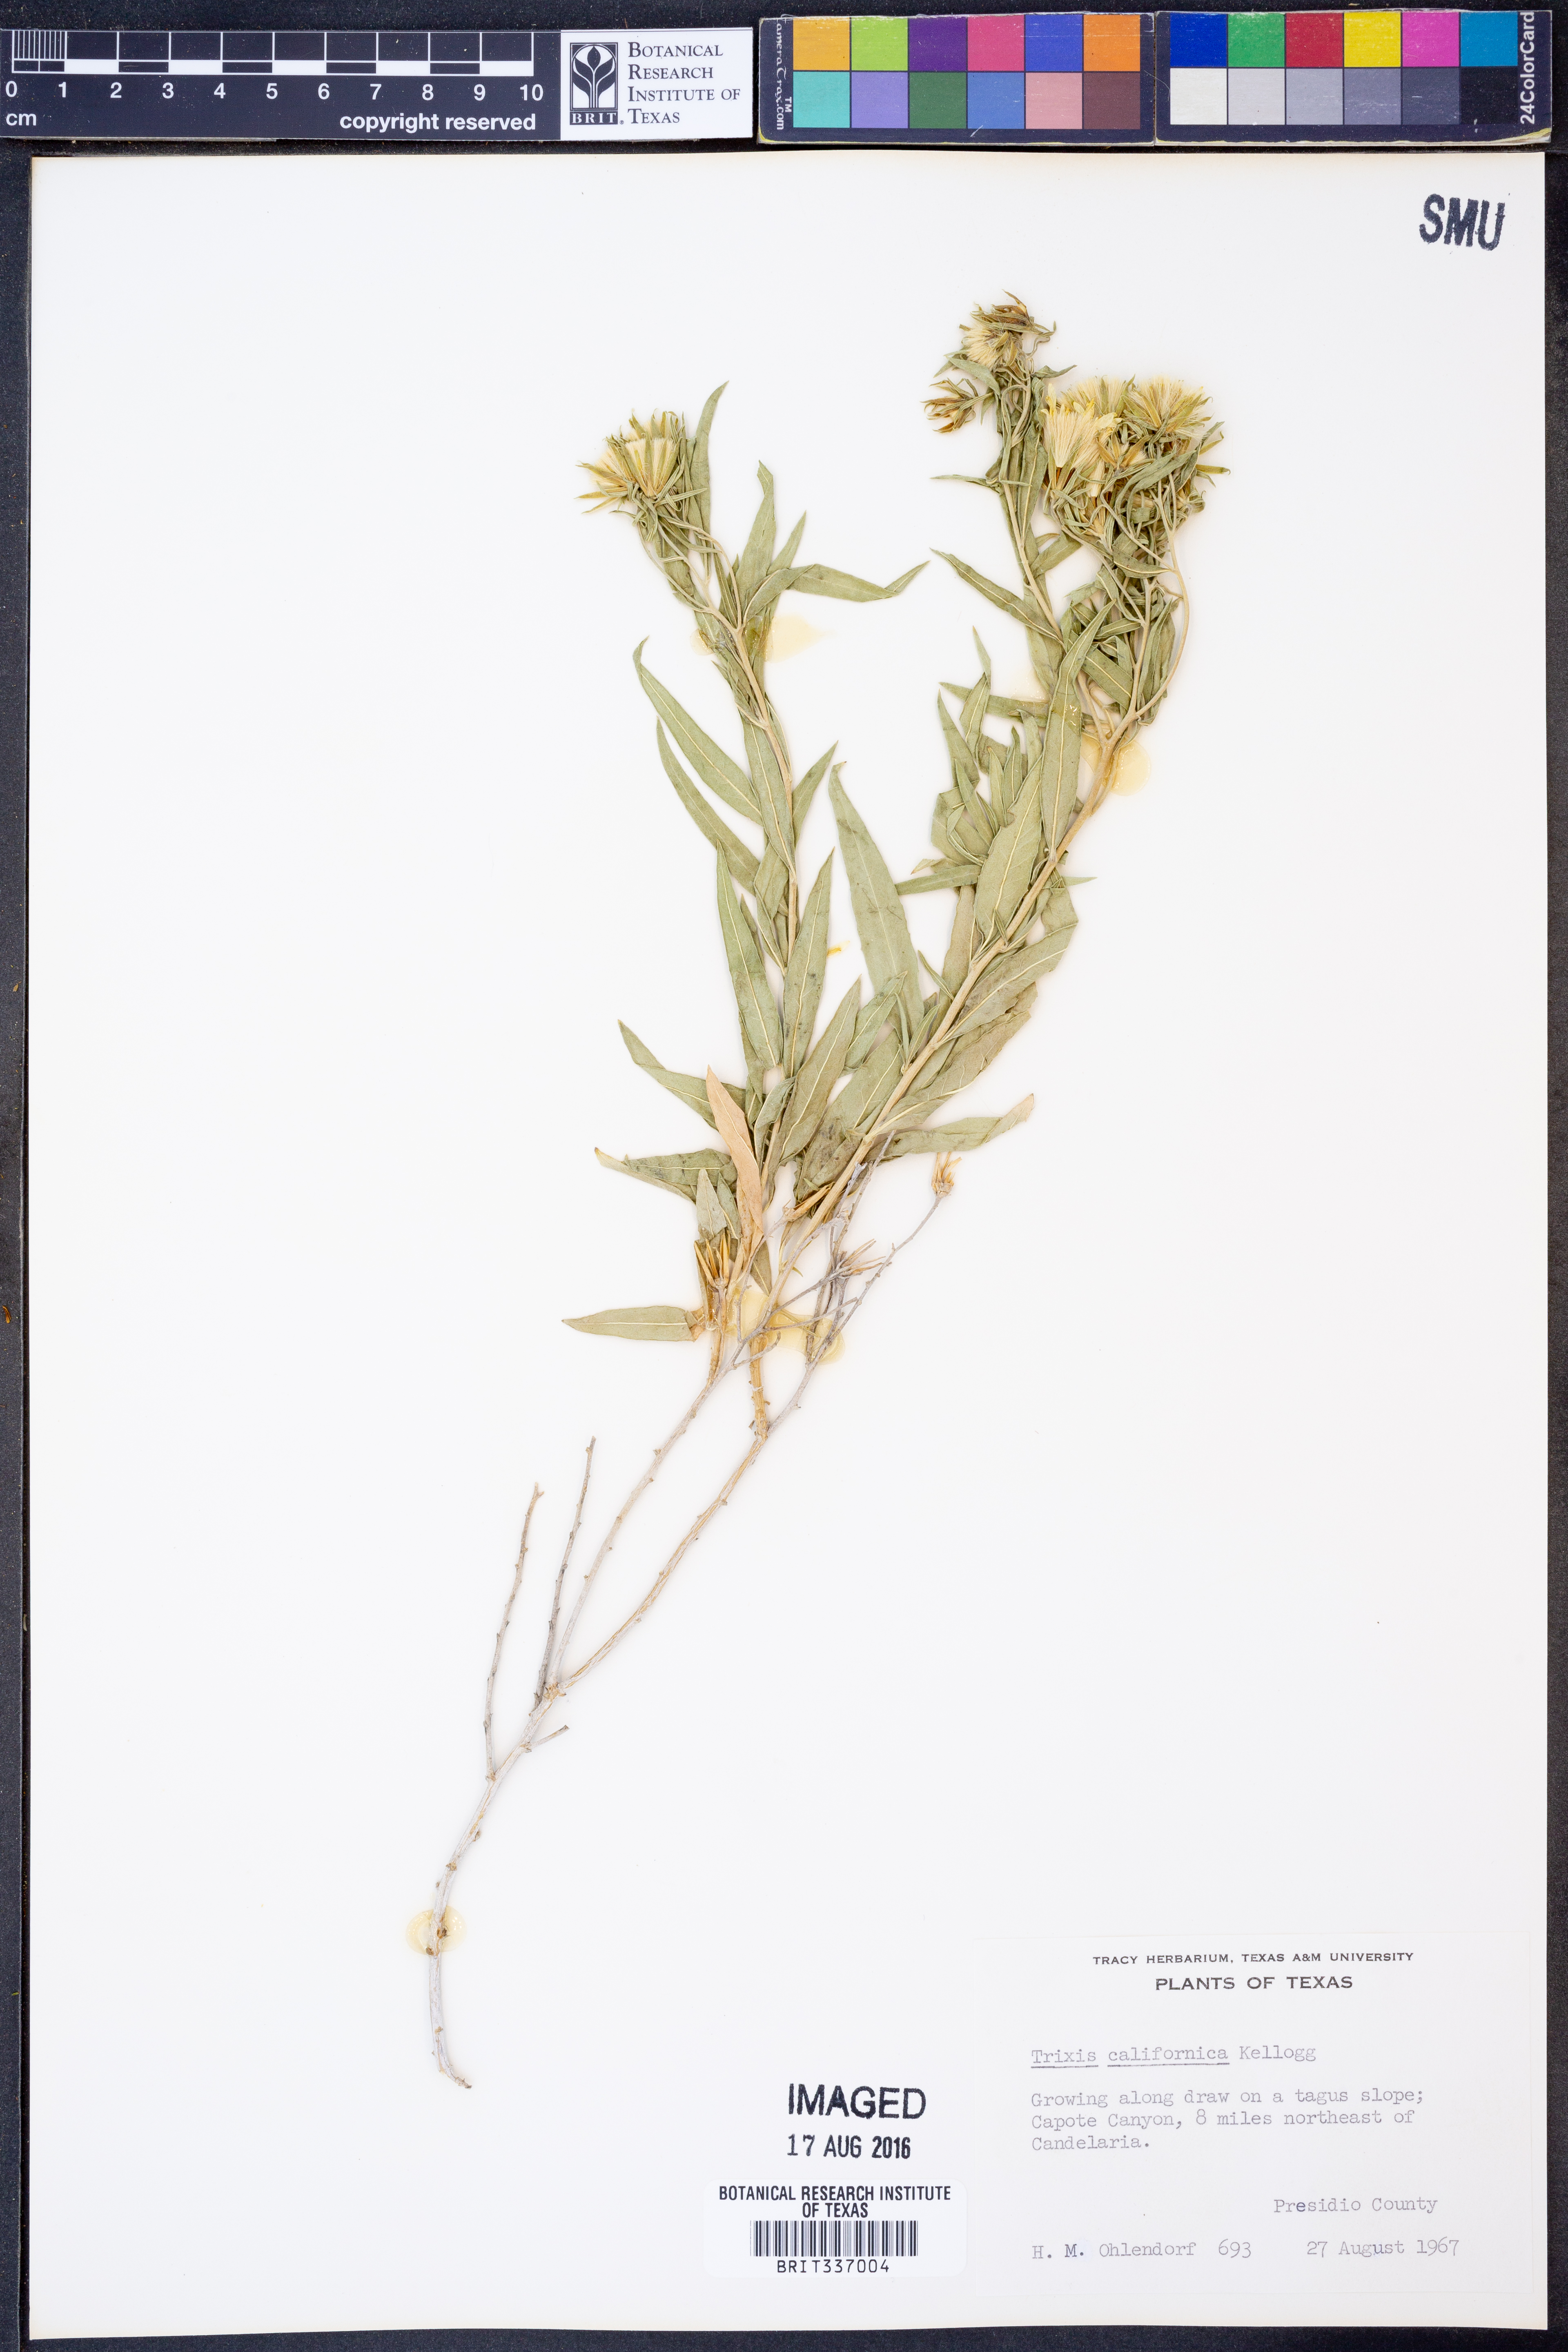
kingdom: Plantae
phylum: Tracheophyta
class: Magnoliopsida
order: Asterales
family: Asteraceae
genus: Trixis
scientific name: Trixis californica
